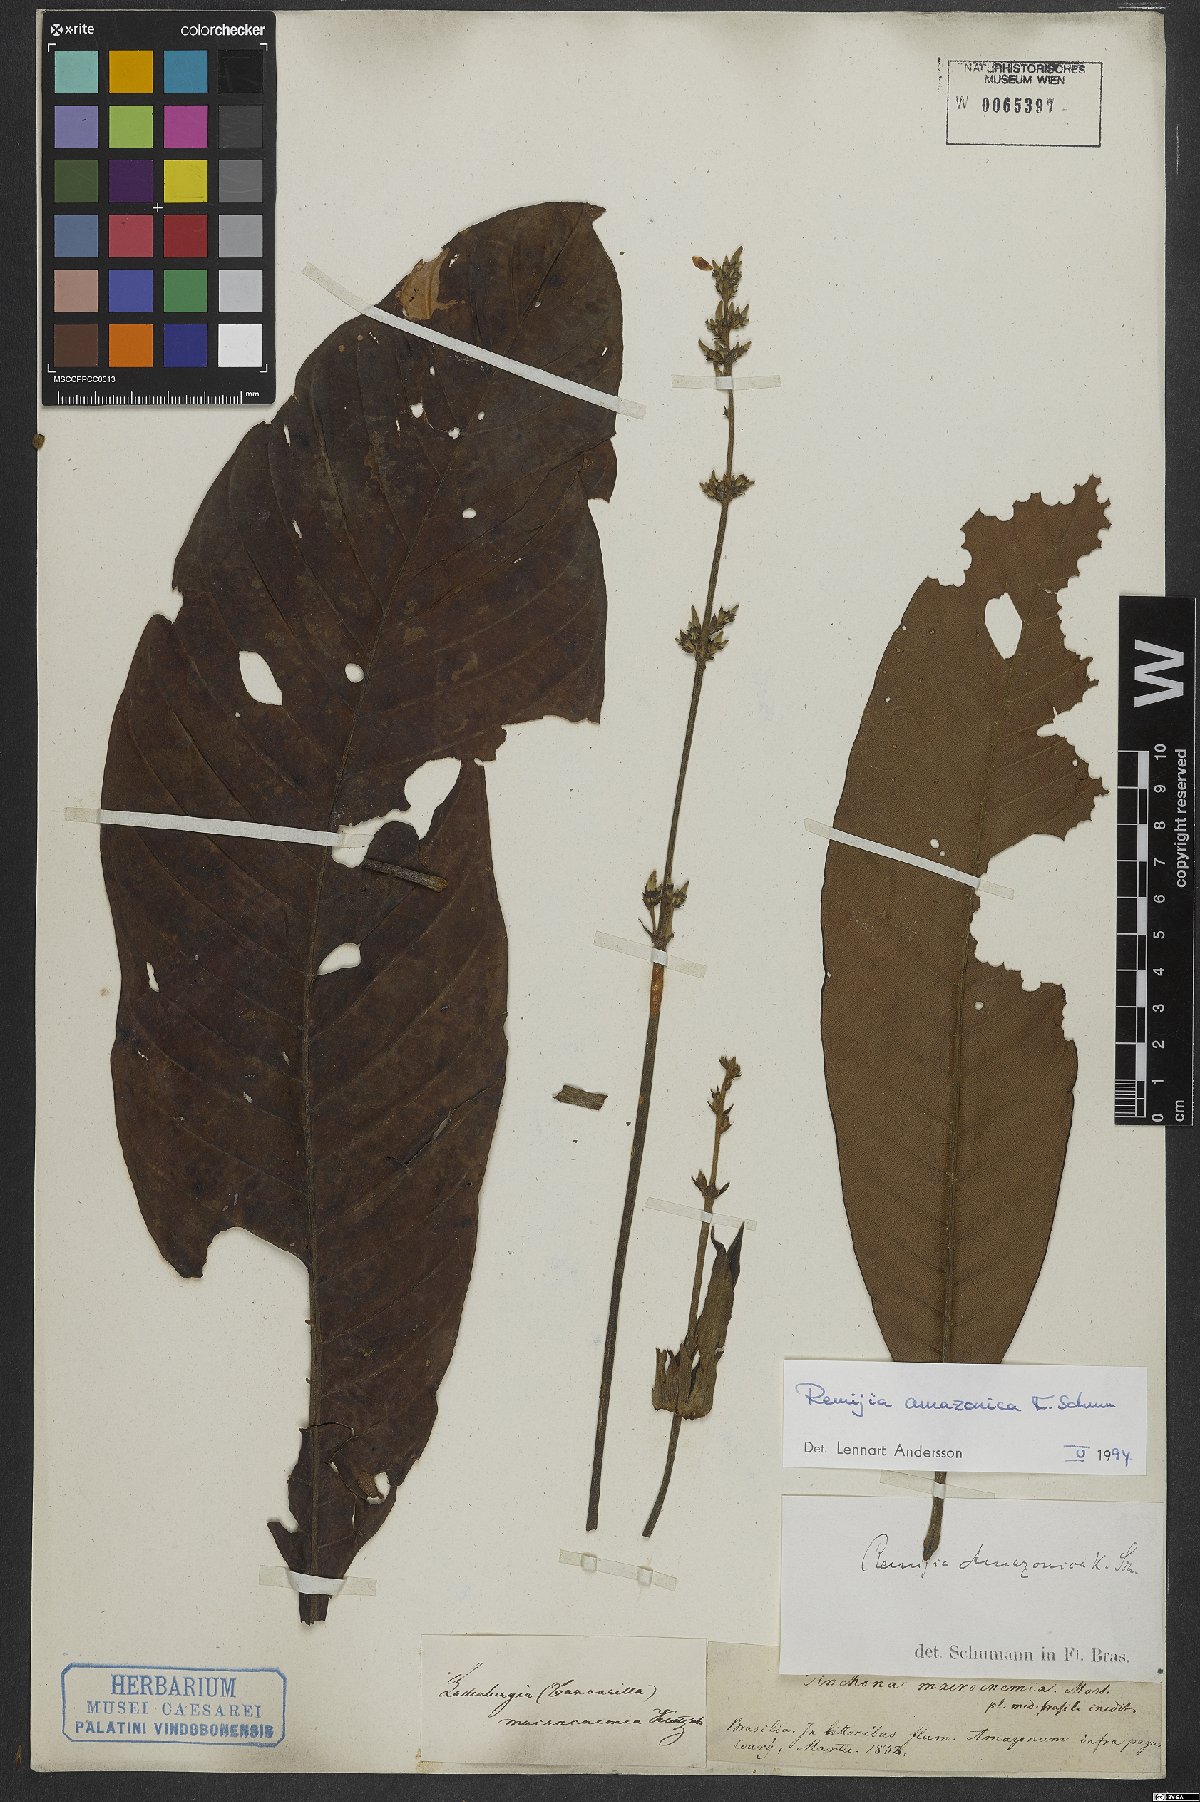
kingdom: Plantae
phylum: Tracheophyta
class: Magnoliopsida
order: Gentianales
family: Rubiaceae
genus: Remijia
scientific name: Remijia amazonica
